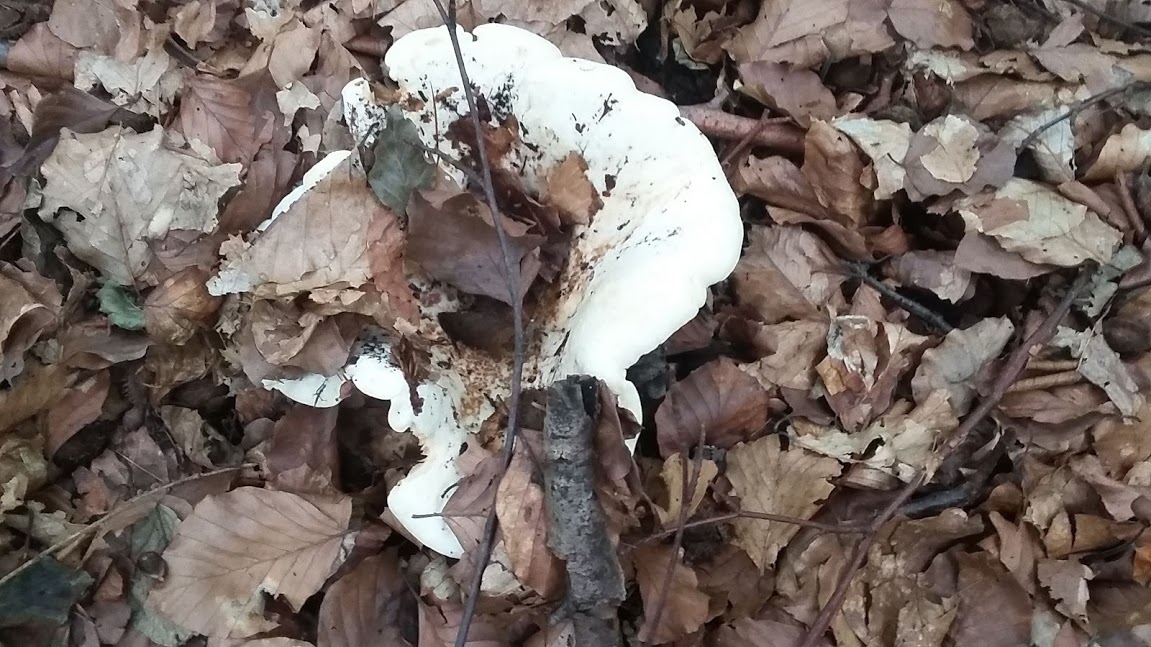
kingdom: Fungi
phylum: Basidiomycota
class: Agaricomycetes
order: Russulales
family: Russulaceae
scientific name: Russulaceae
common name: skørhatfamilien
